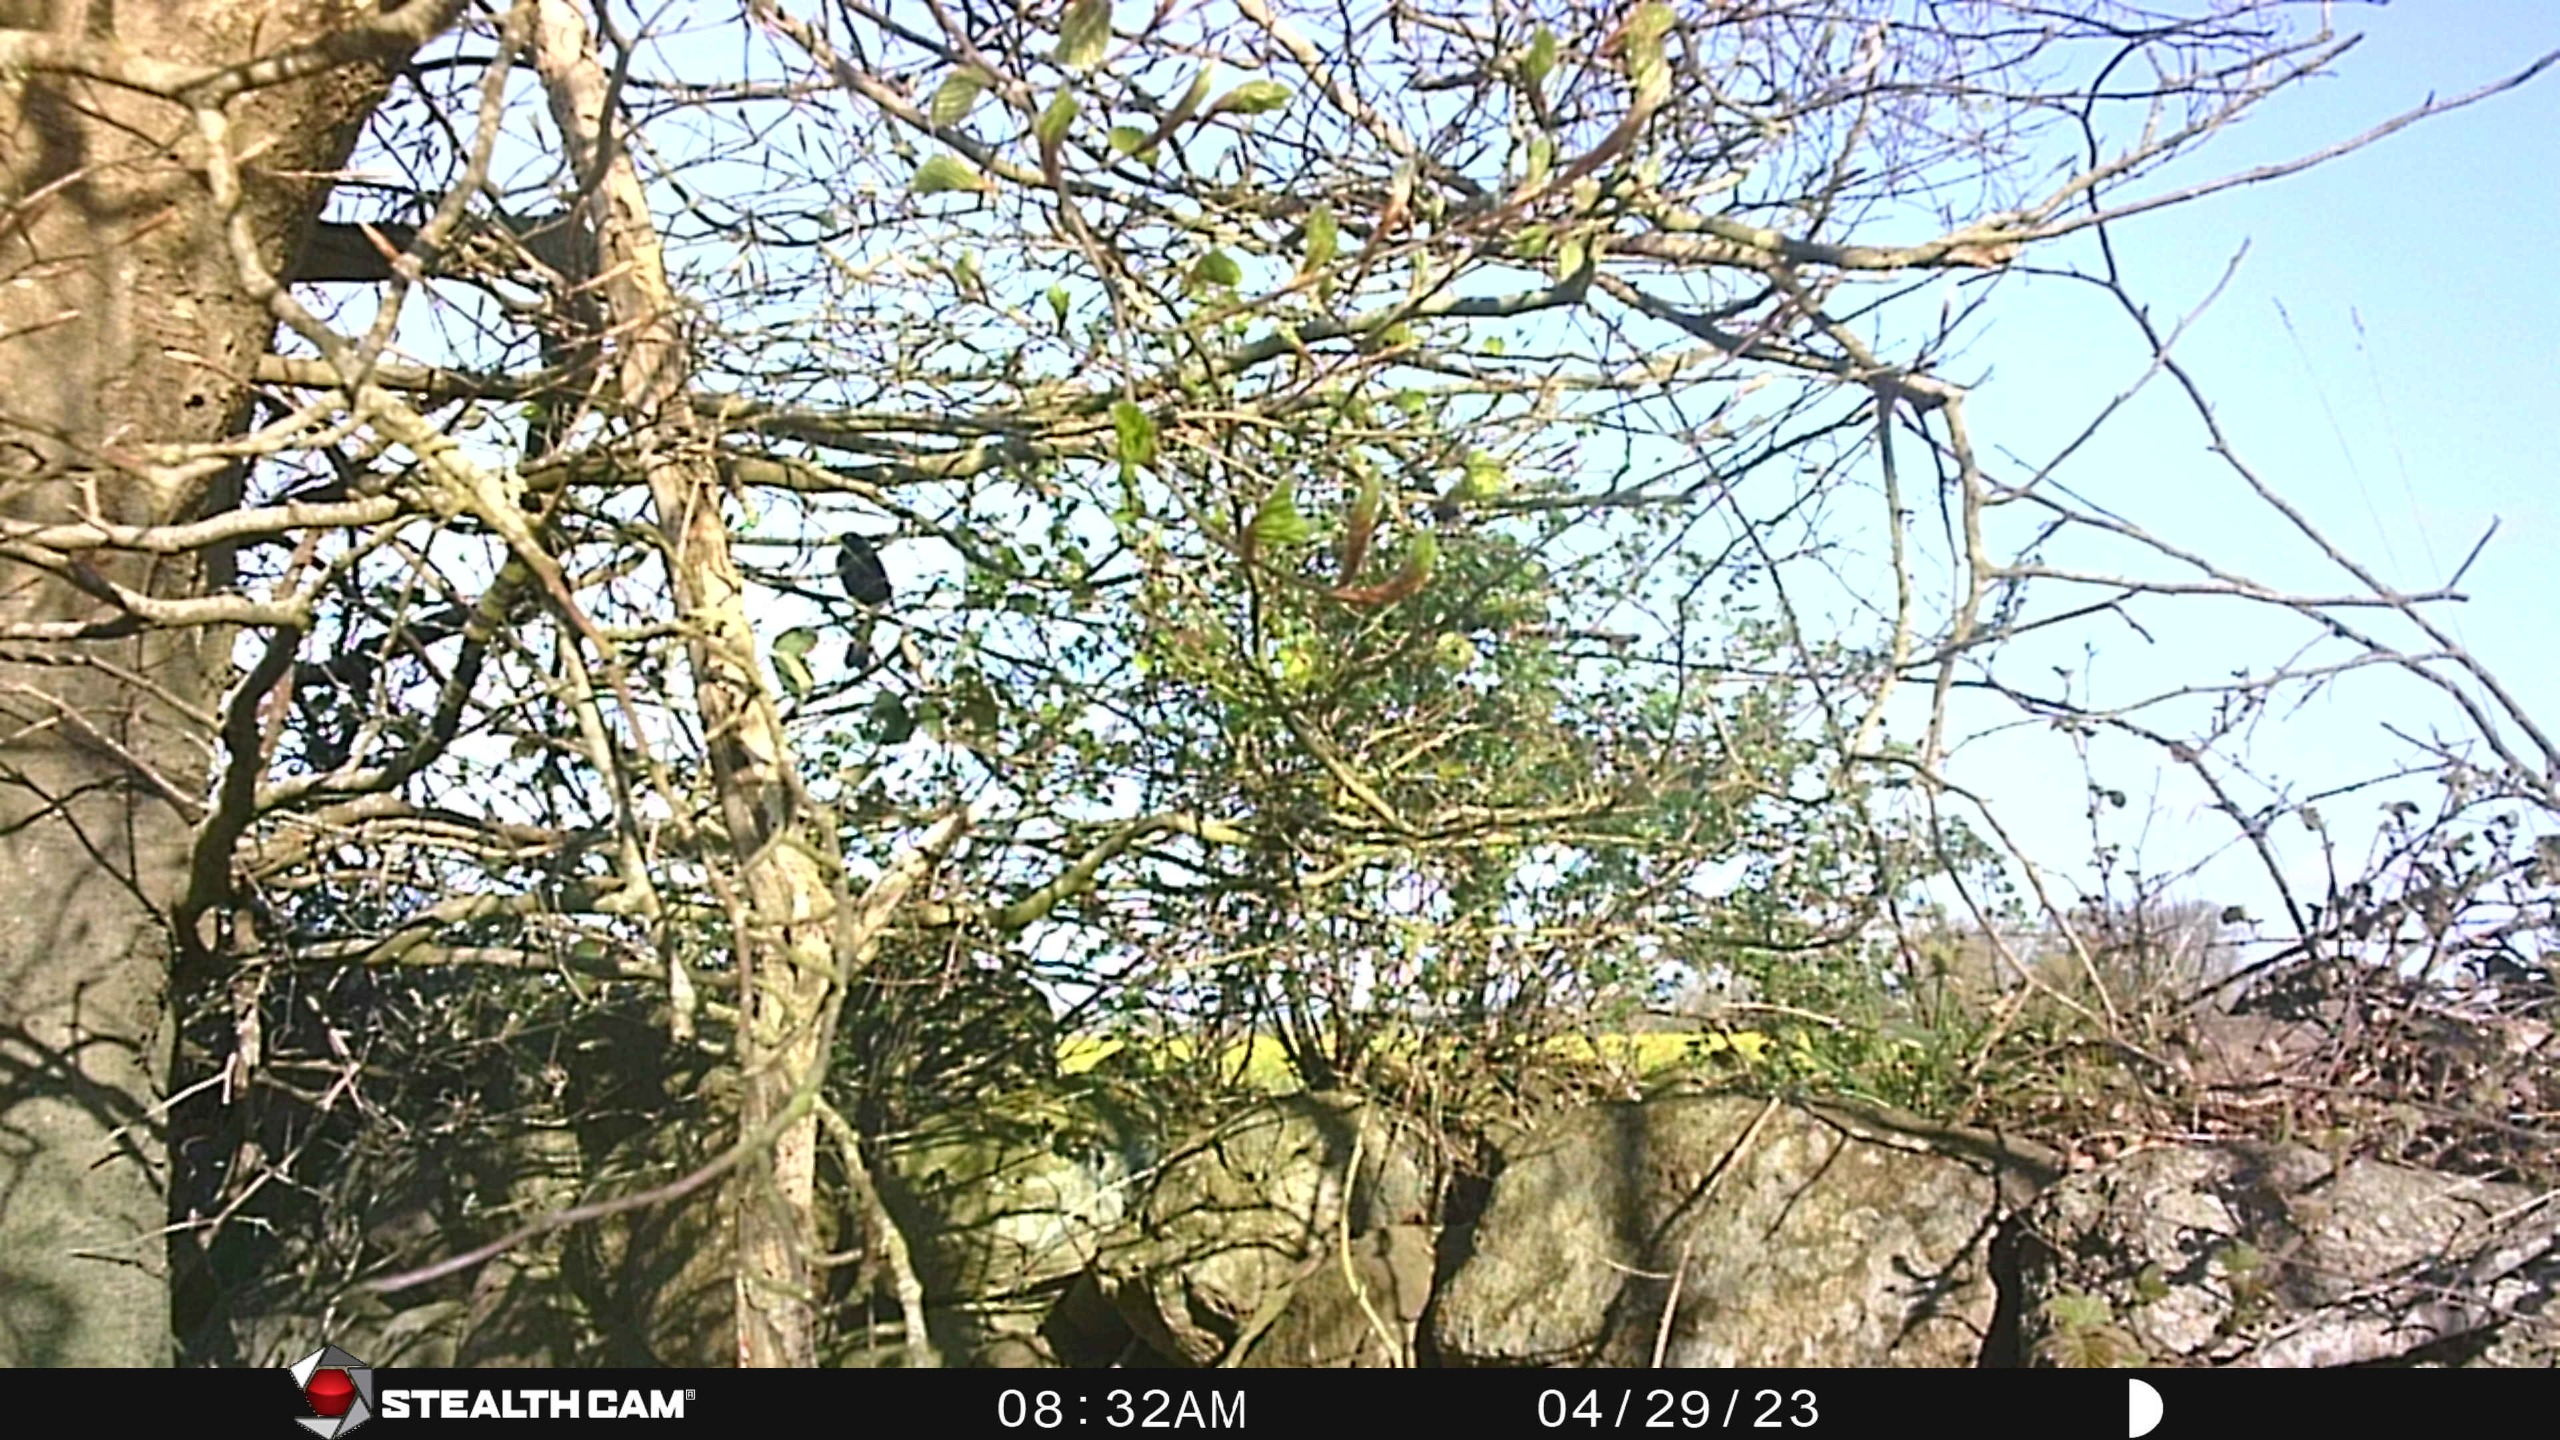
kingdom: Animalia
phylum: Chordata
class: Aves
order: Passeriformes
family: Turdidae
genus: Turdus
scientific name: Turdus merula
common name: Solsort
